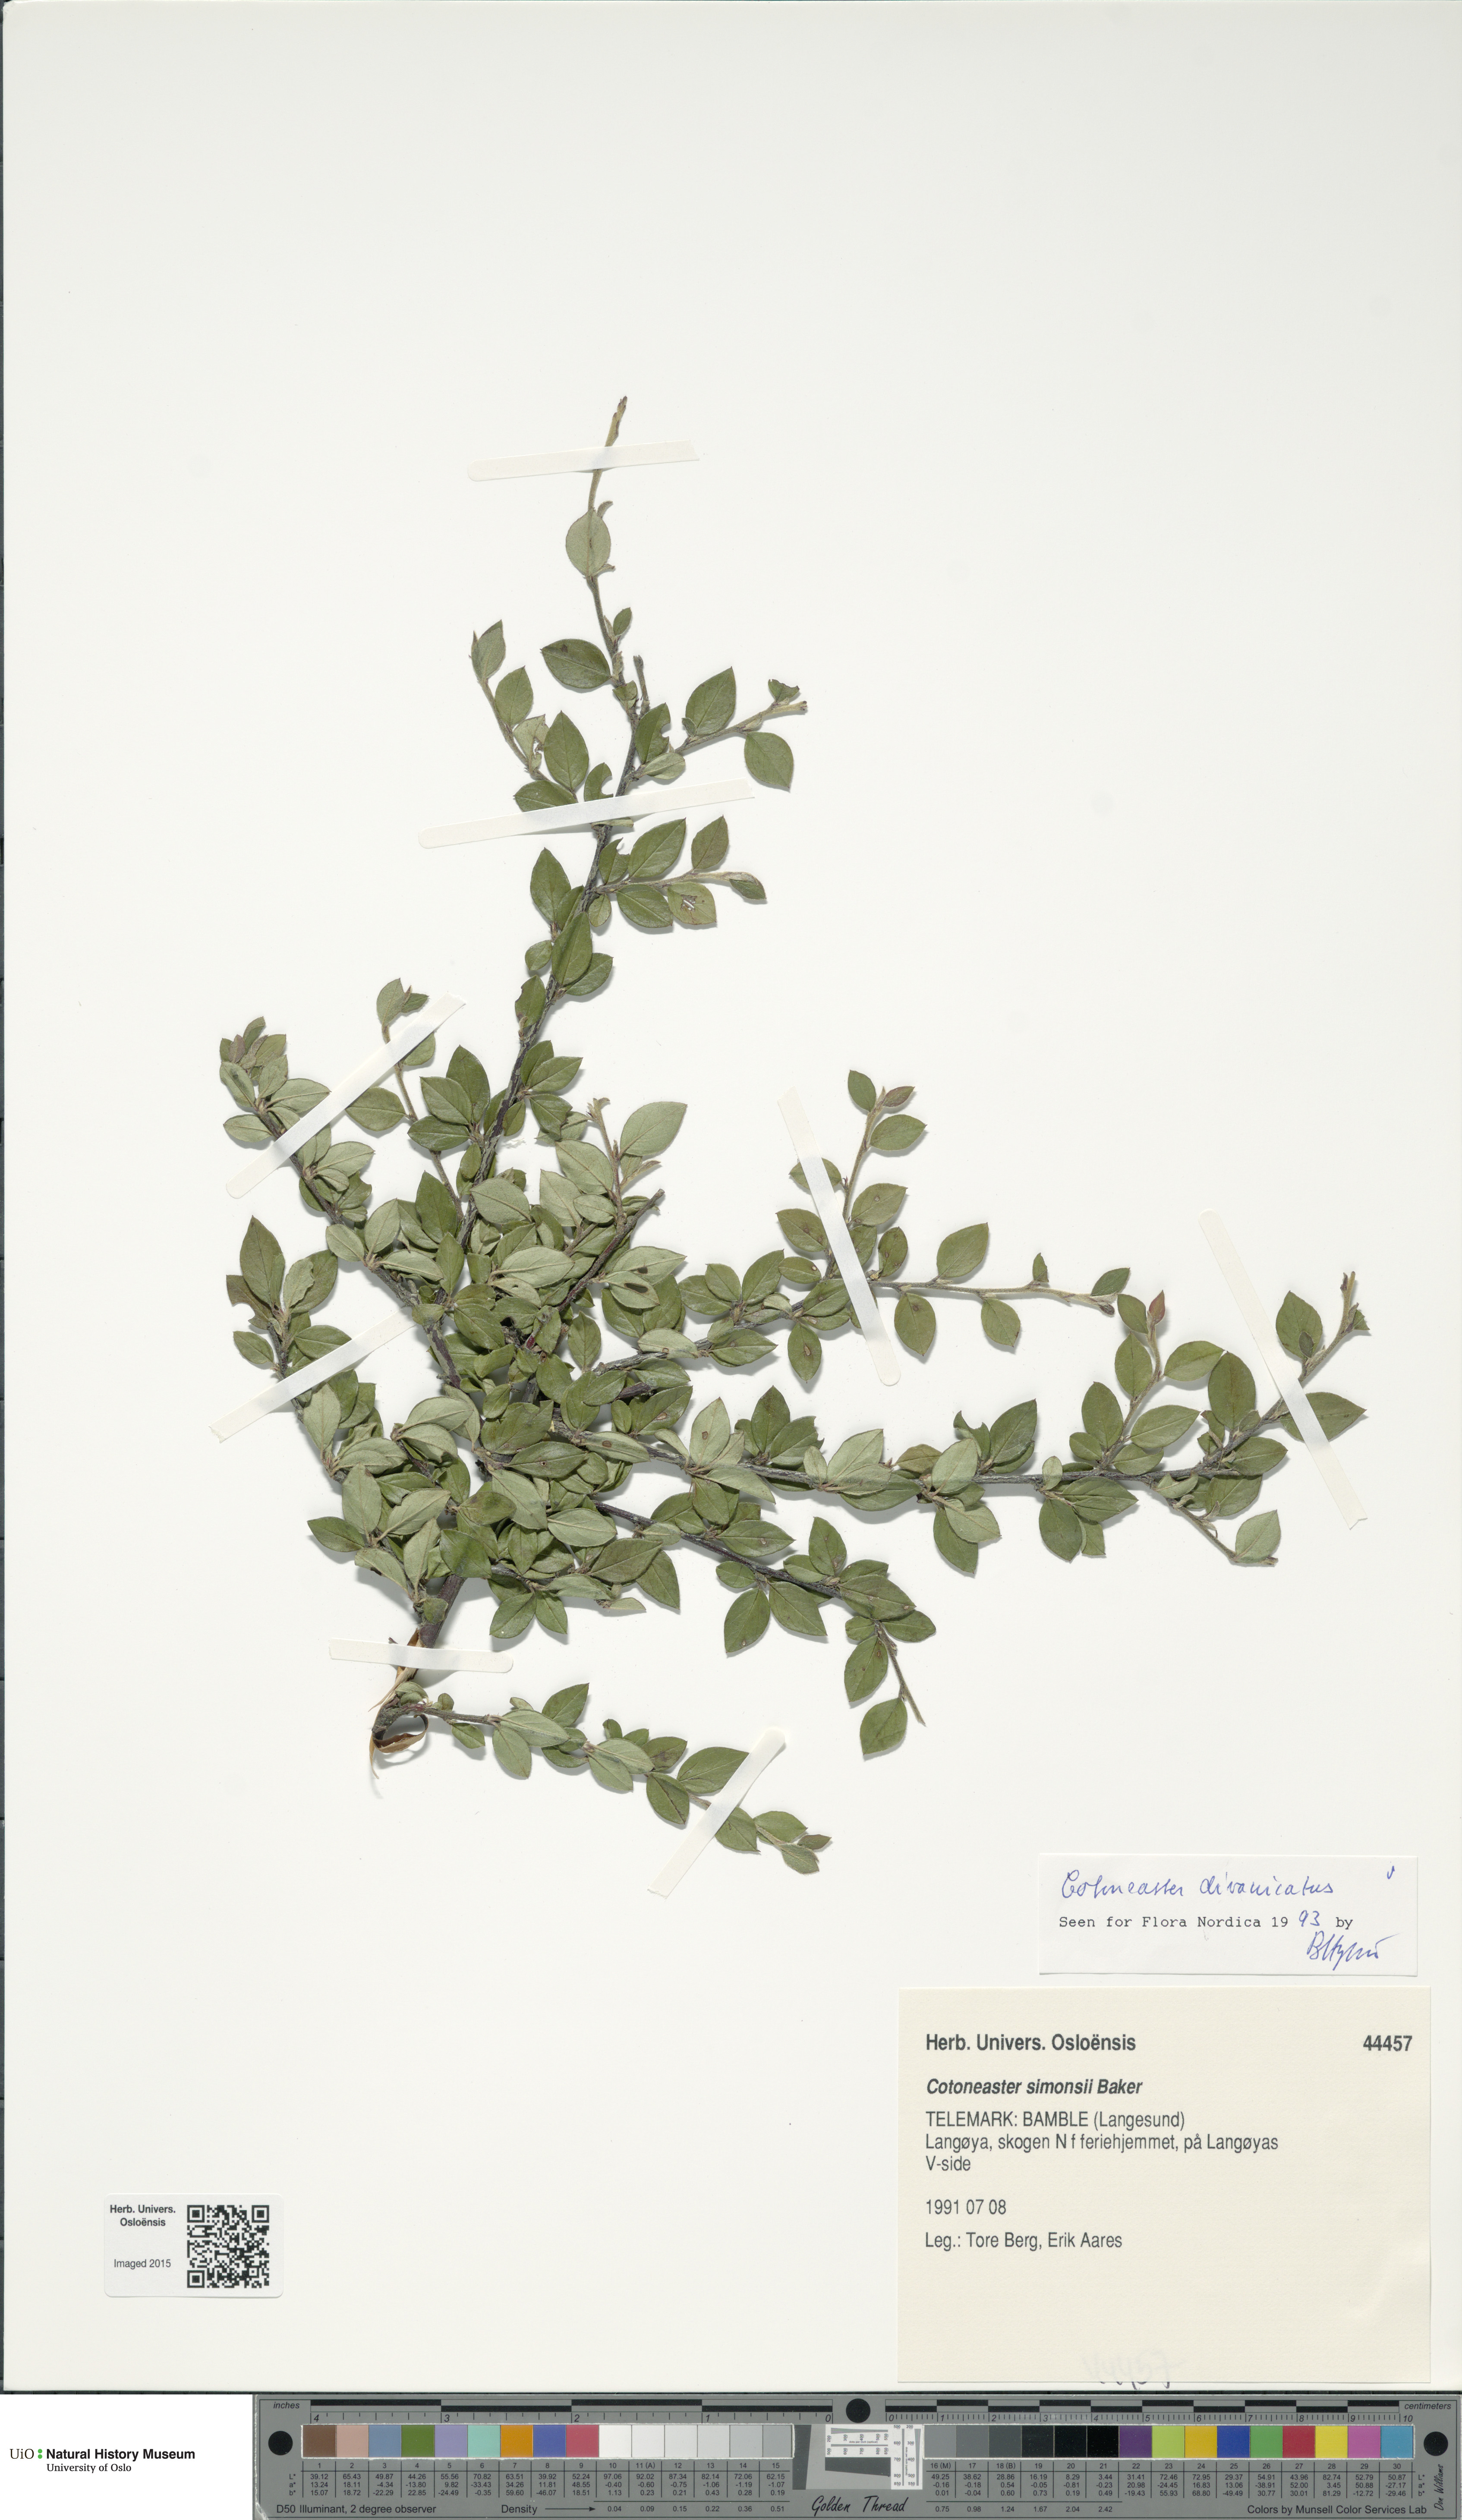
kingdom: Plantae
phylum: Tracheophyta
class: Magnoliopsida
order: Rosales
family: Rosaceae
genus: Cotoneaster
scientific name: Cotoneaster divaricatus
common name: Spreading cotoneaster
